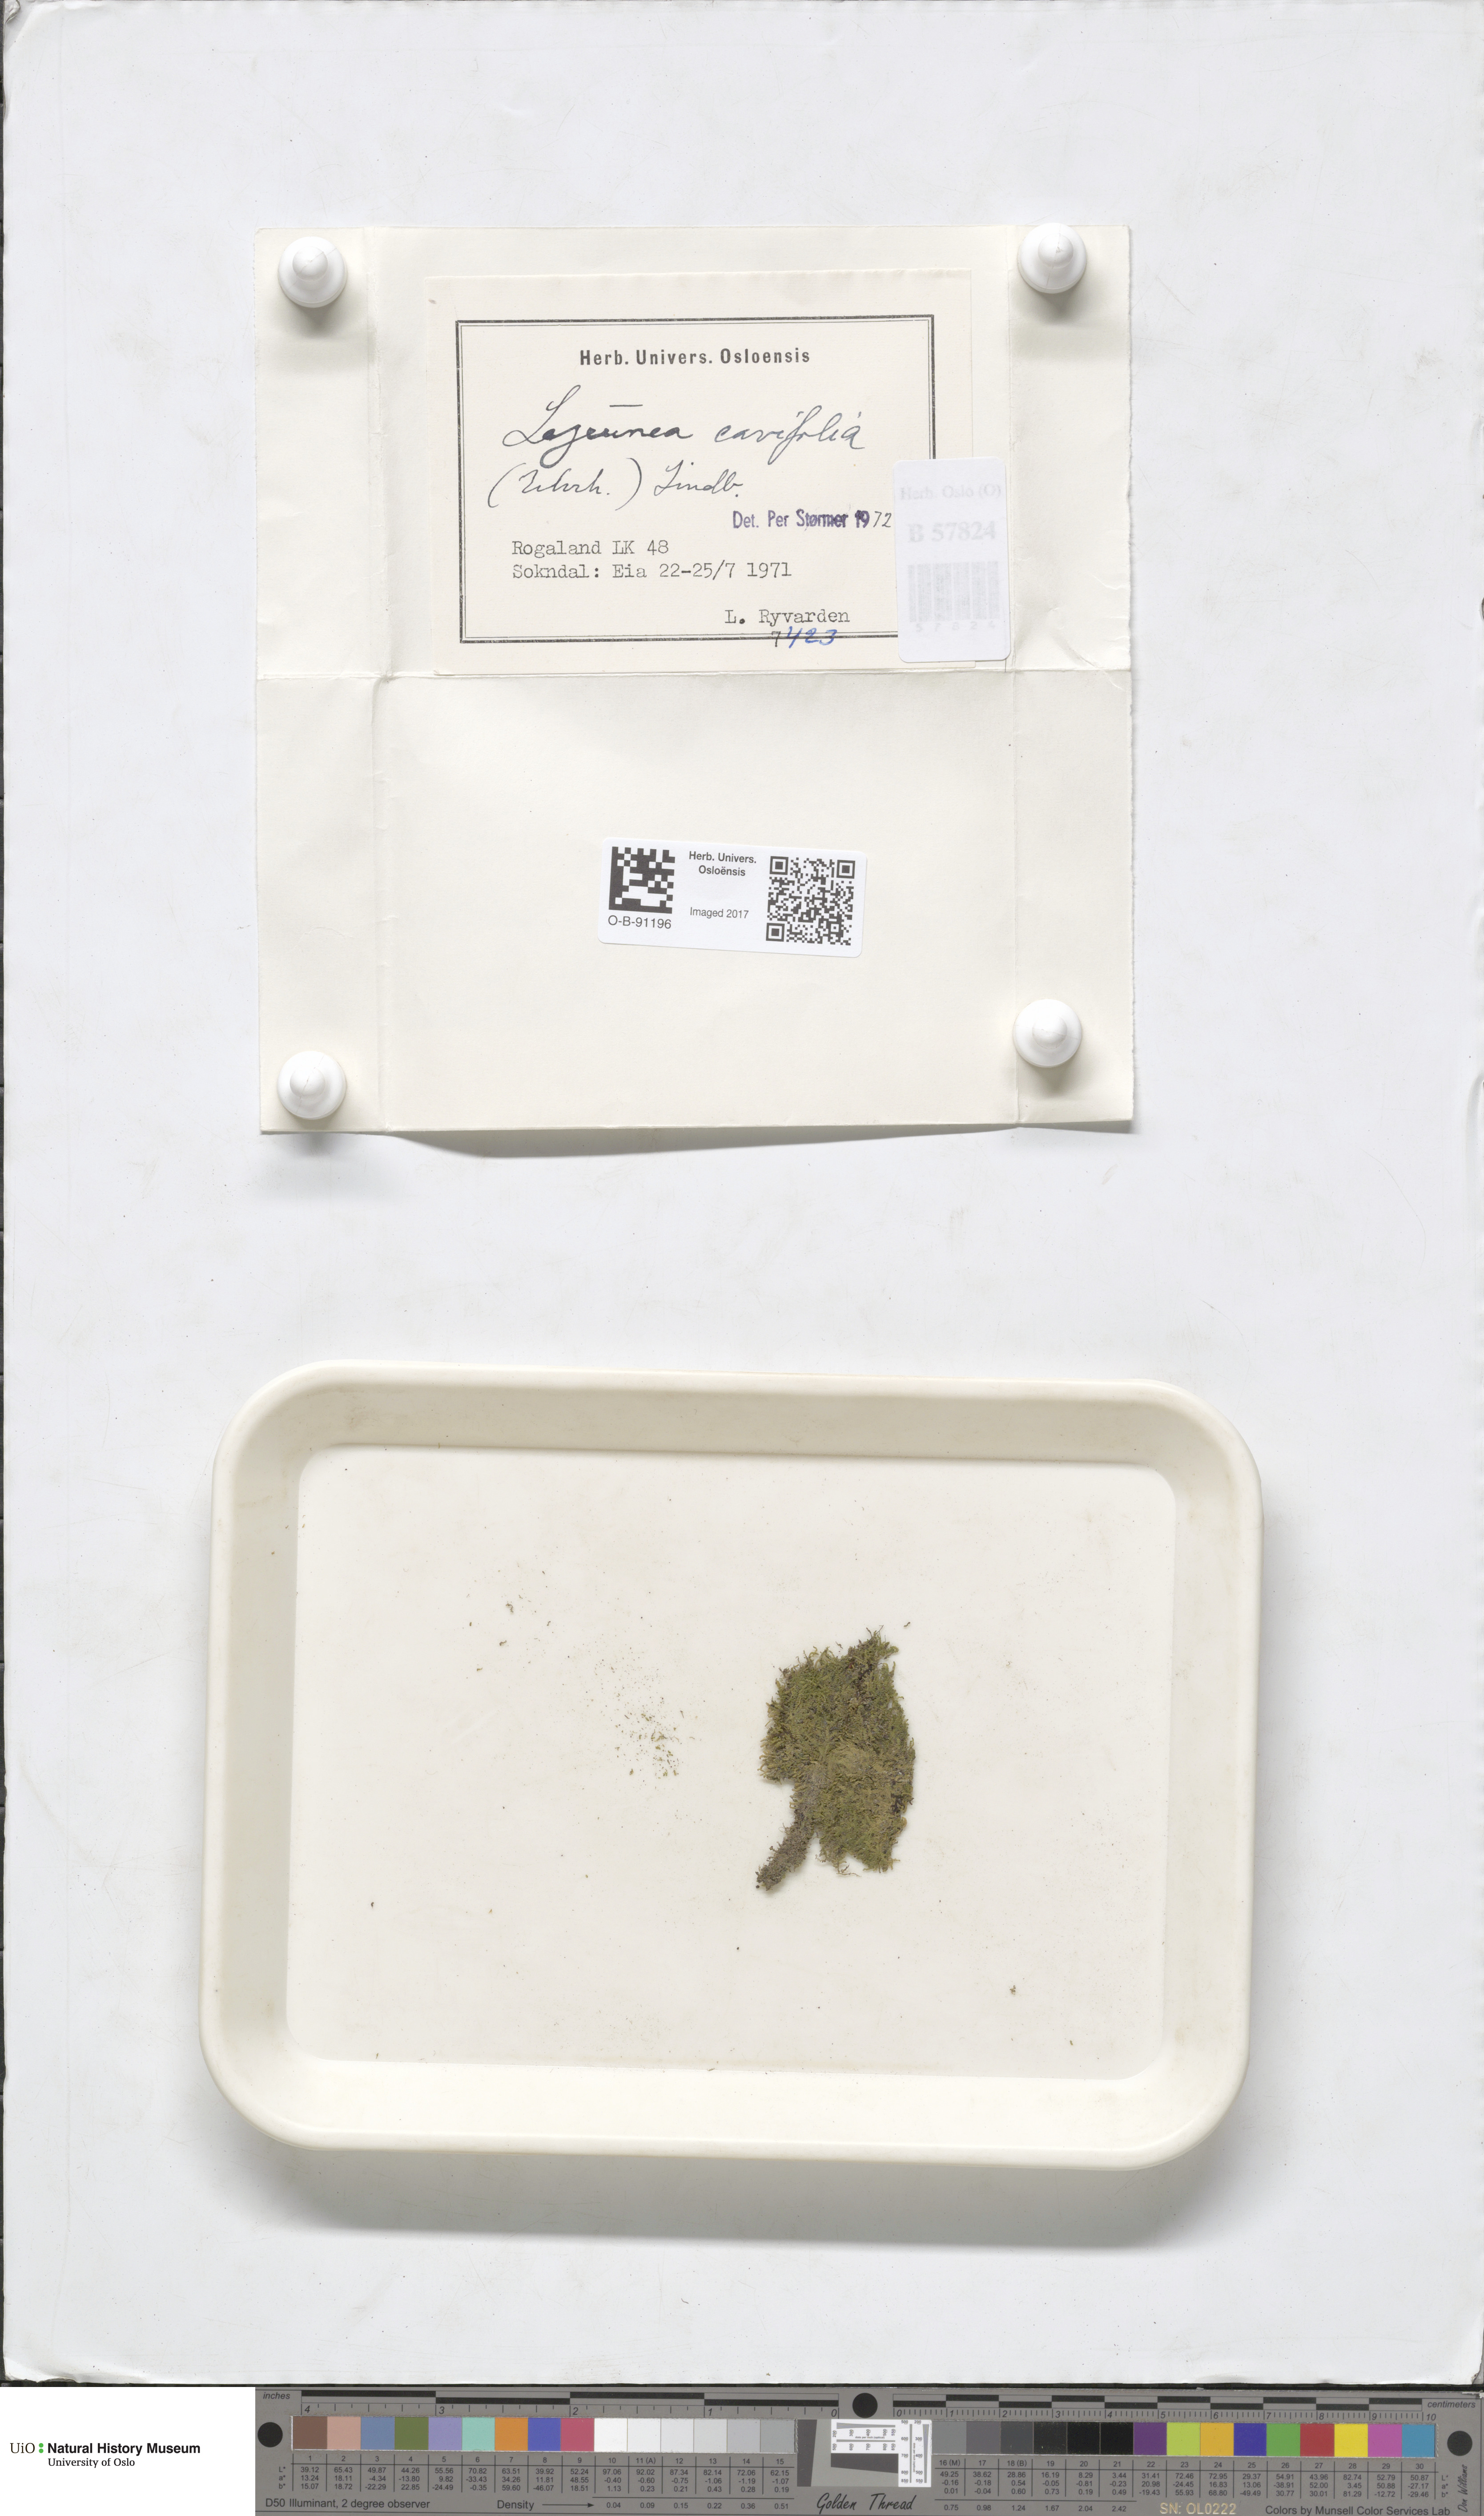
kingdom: Plantae
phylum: Marchantiophyta
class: Jungermanniopsida
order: Porellales
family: Lejeuneaceae
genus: Lejeunea
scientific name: Lejeunea cavifolia
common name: Least pouncewort
